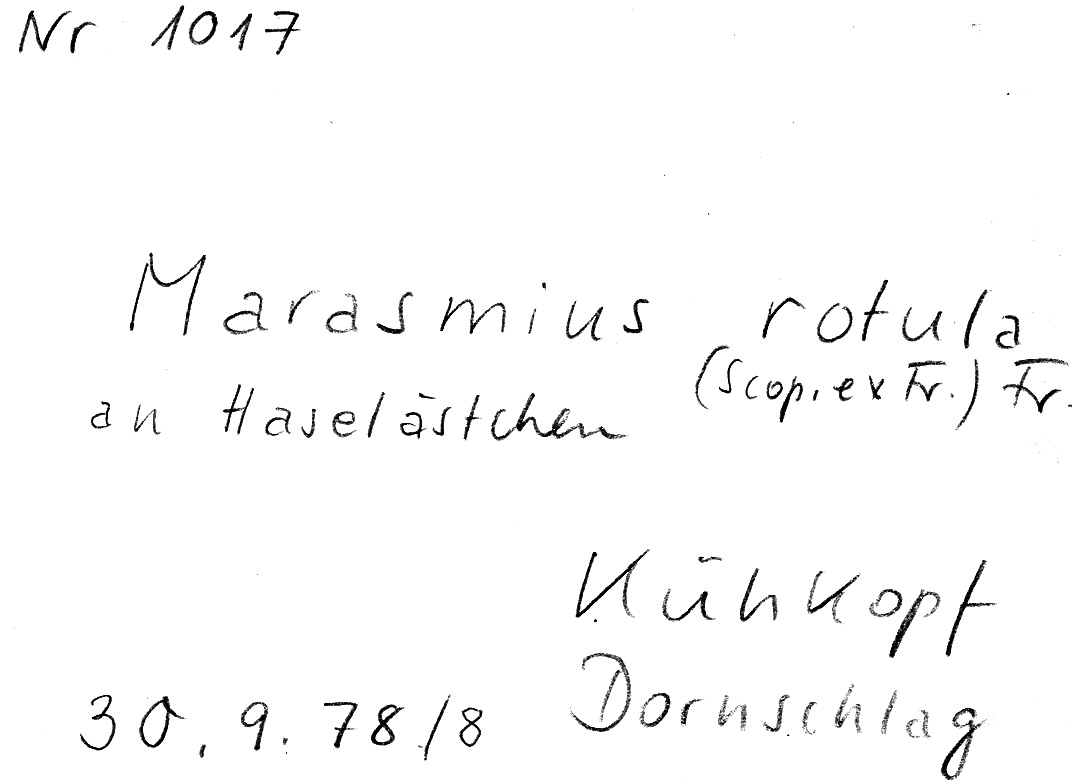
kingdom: Plantae
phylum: Tracheophyta
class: Magnoliopsida
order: Fagales
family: Betulaceae
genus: Corylus
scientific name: Corylus
